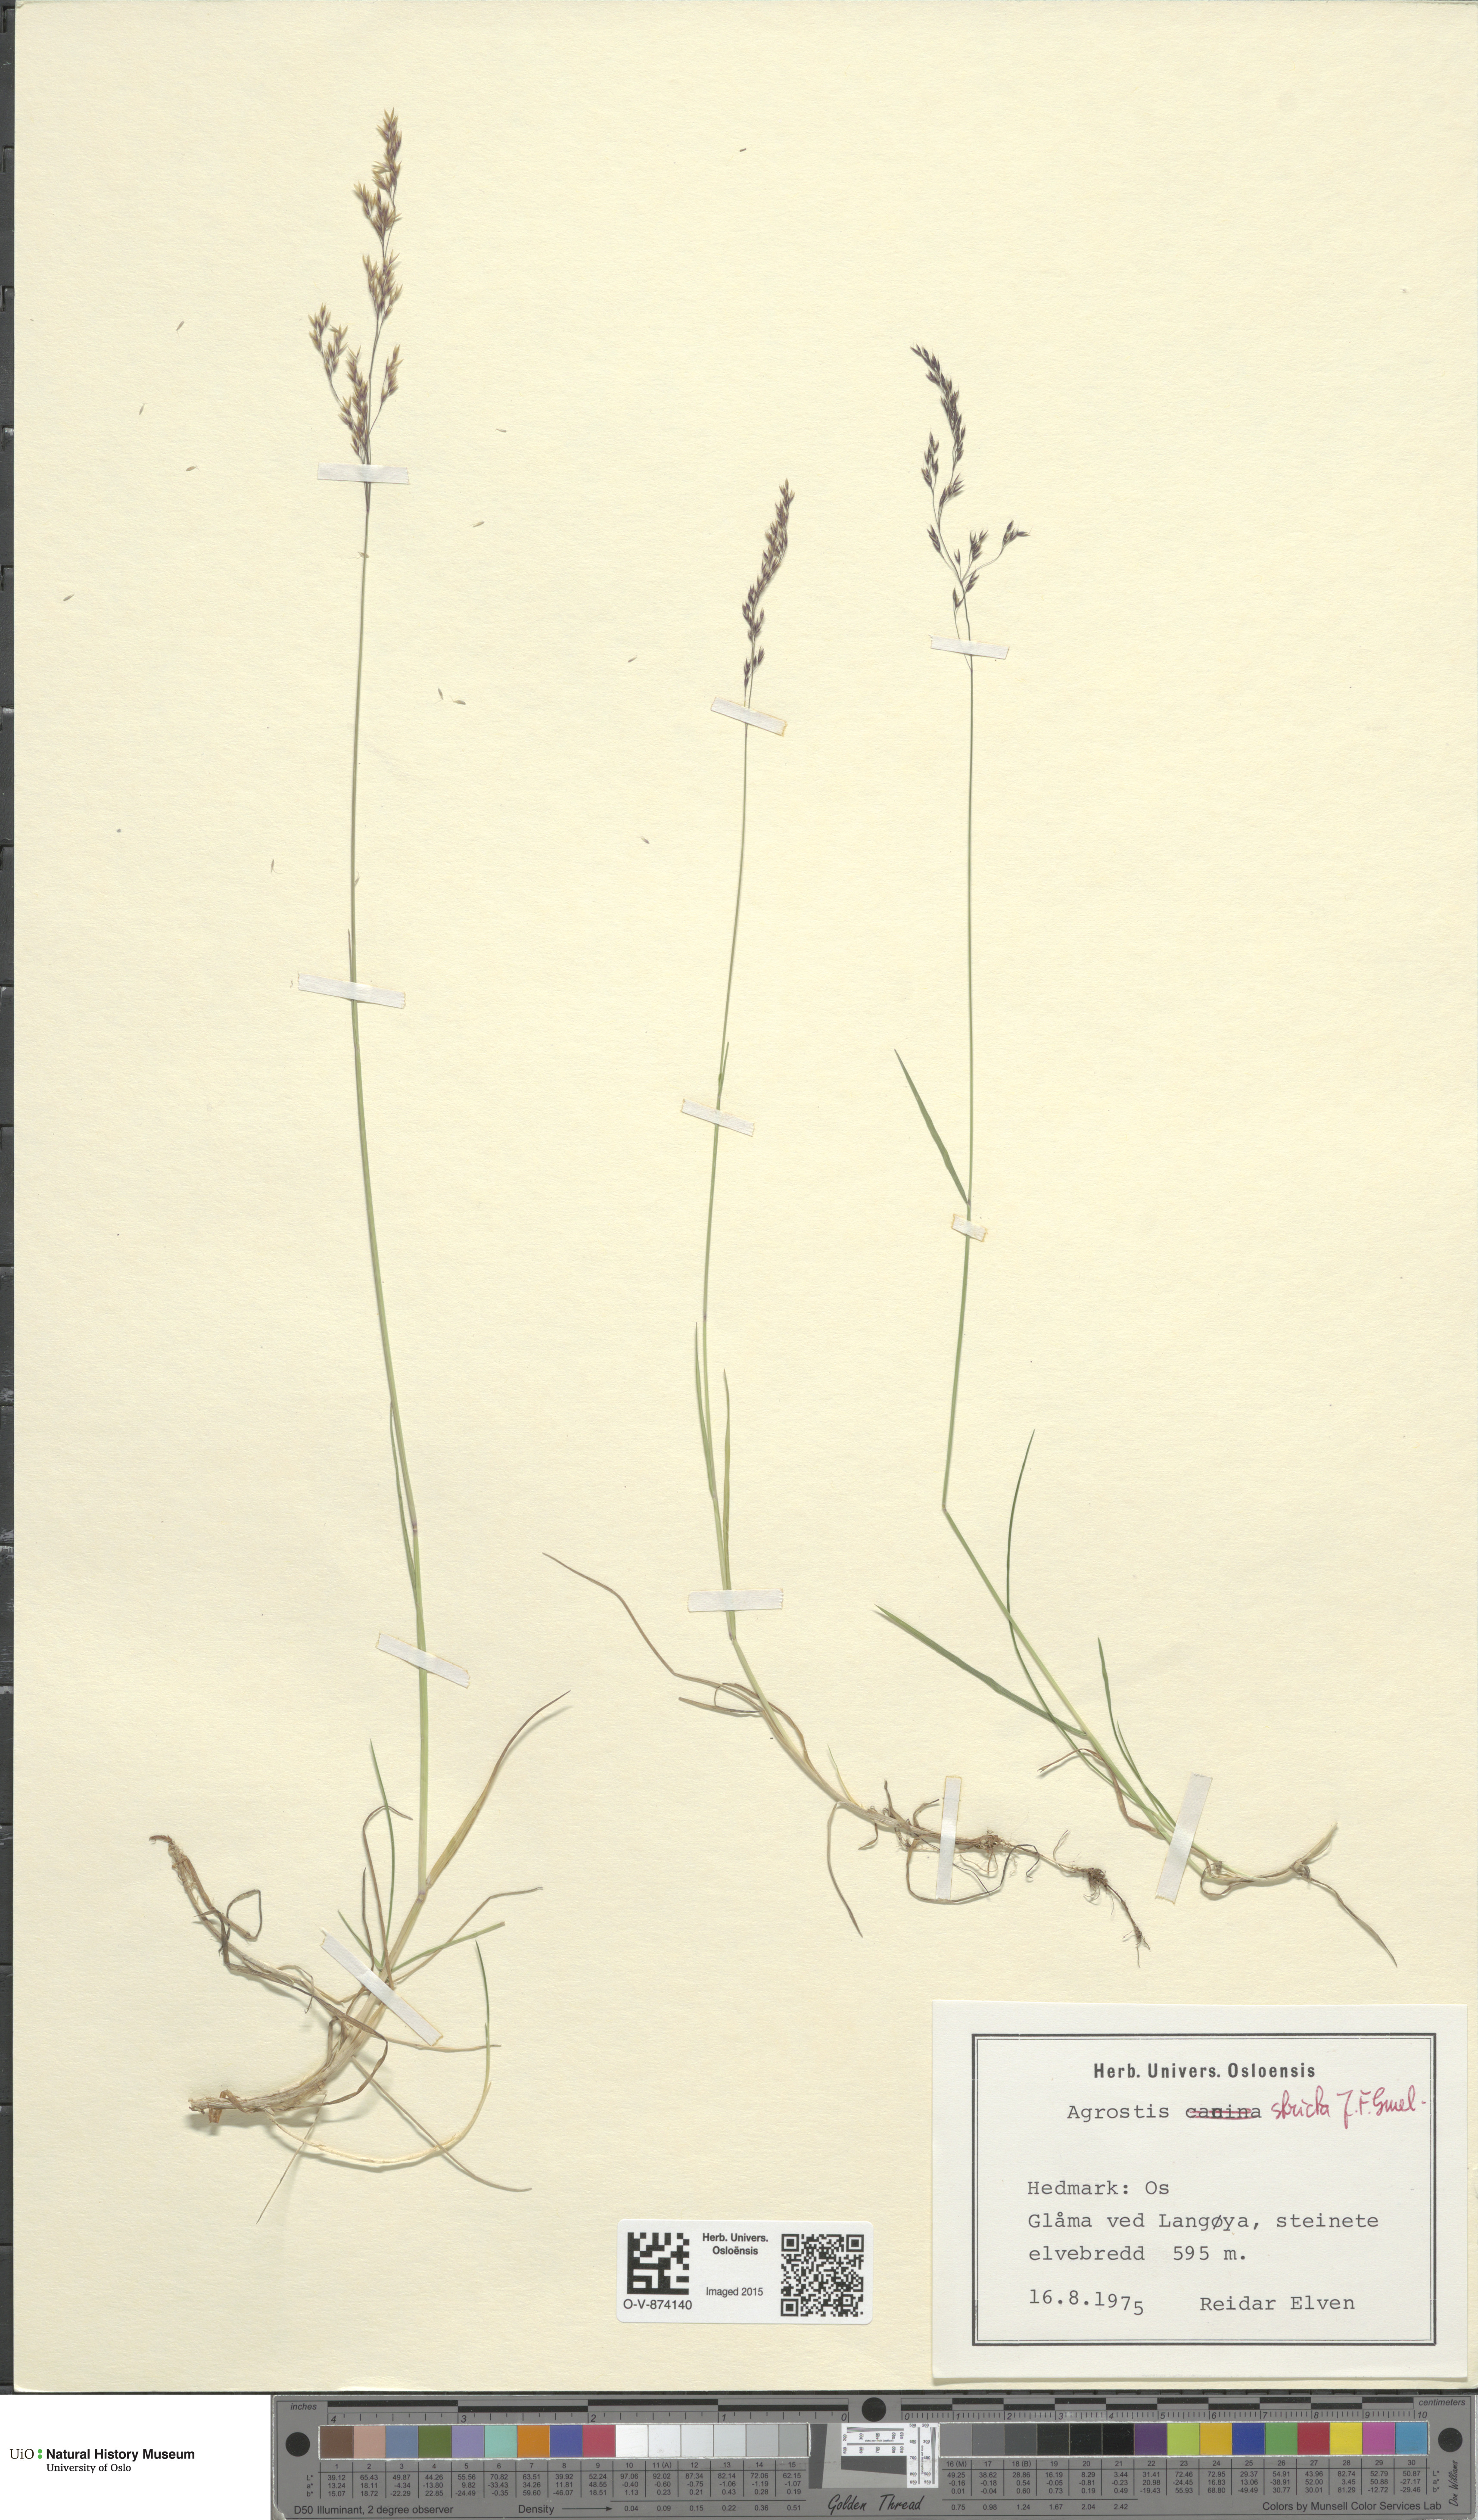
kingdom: Plantae
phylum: Tracheophyta
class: Liliopsida
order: Poales
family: Poaceae
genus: Agrostis
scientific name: Agrostis vinealis
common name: Brown bent
